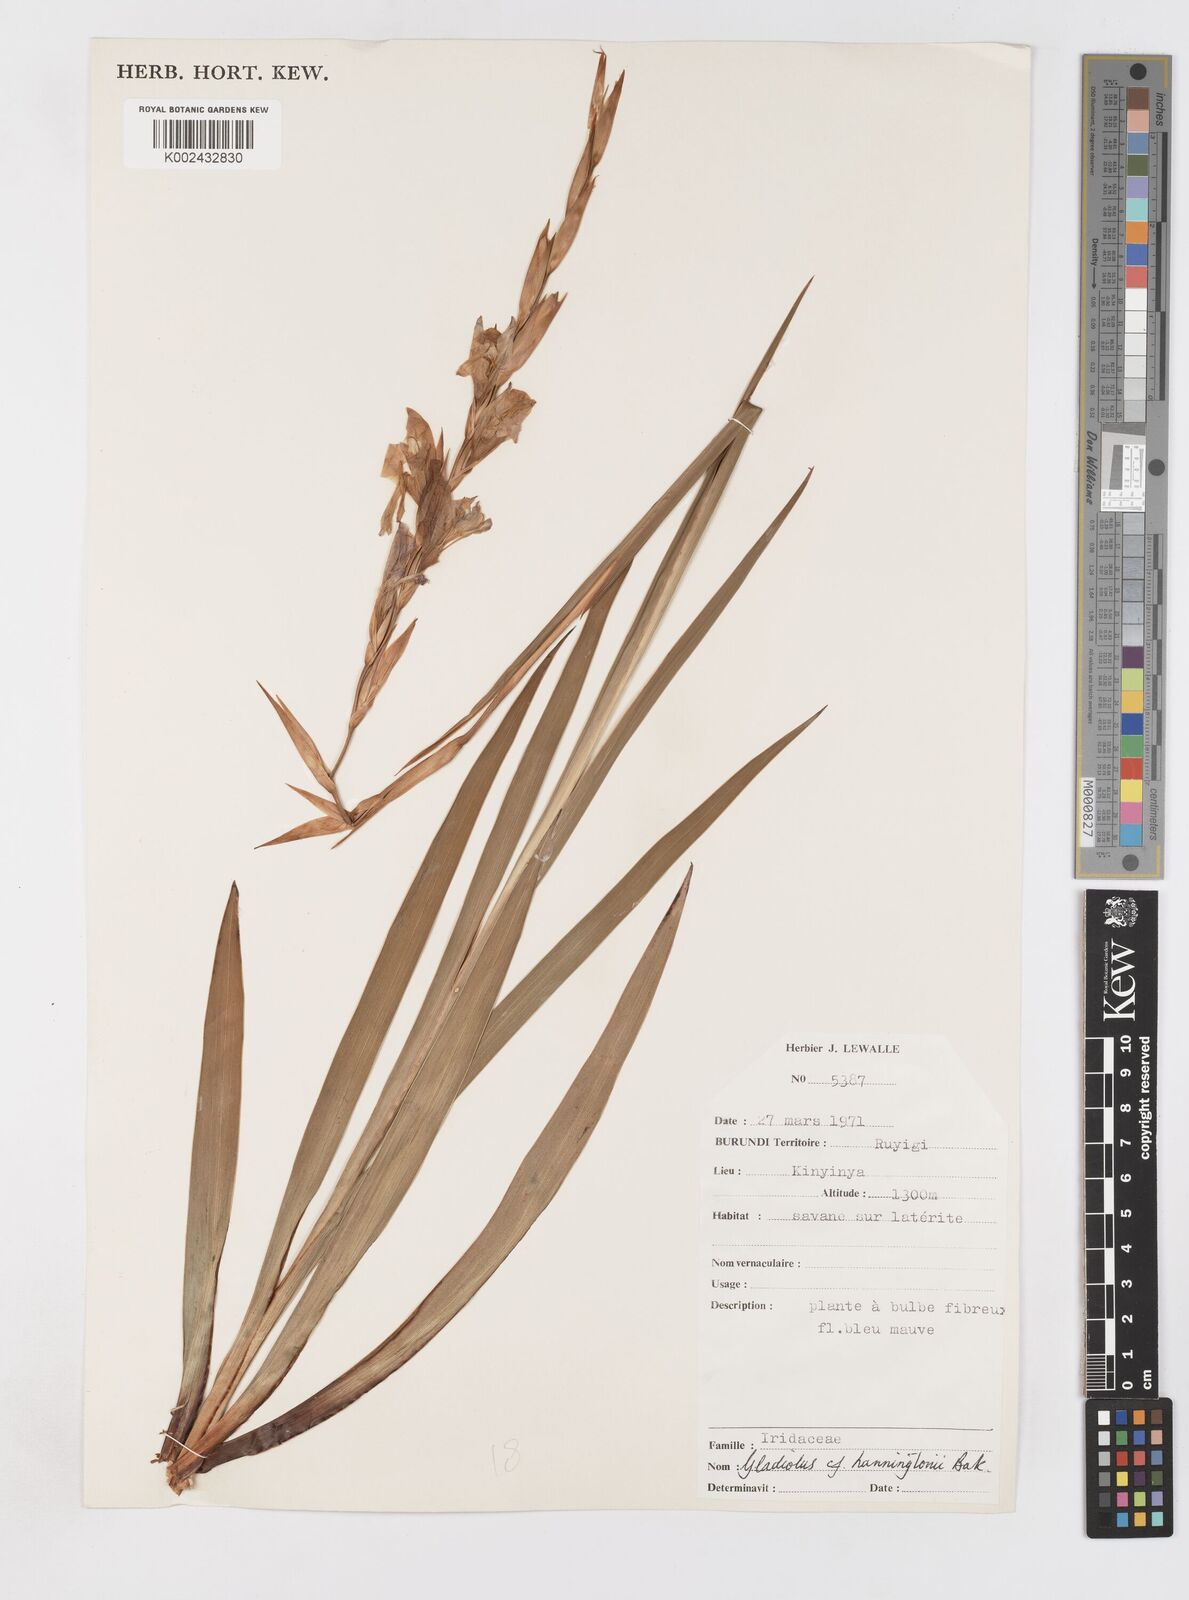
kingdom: Plantae
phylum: Tracheophyta
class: Liliopsida
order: Asparagales
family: Iridaceae
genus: Gladiolus
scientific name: Gladiolus gregarius
